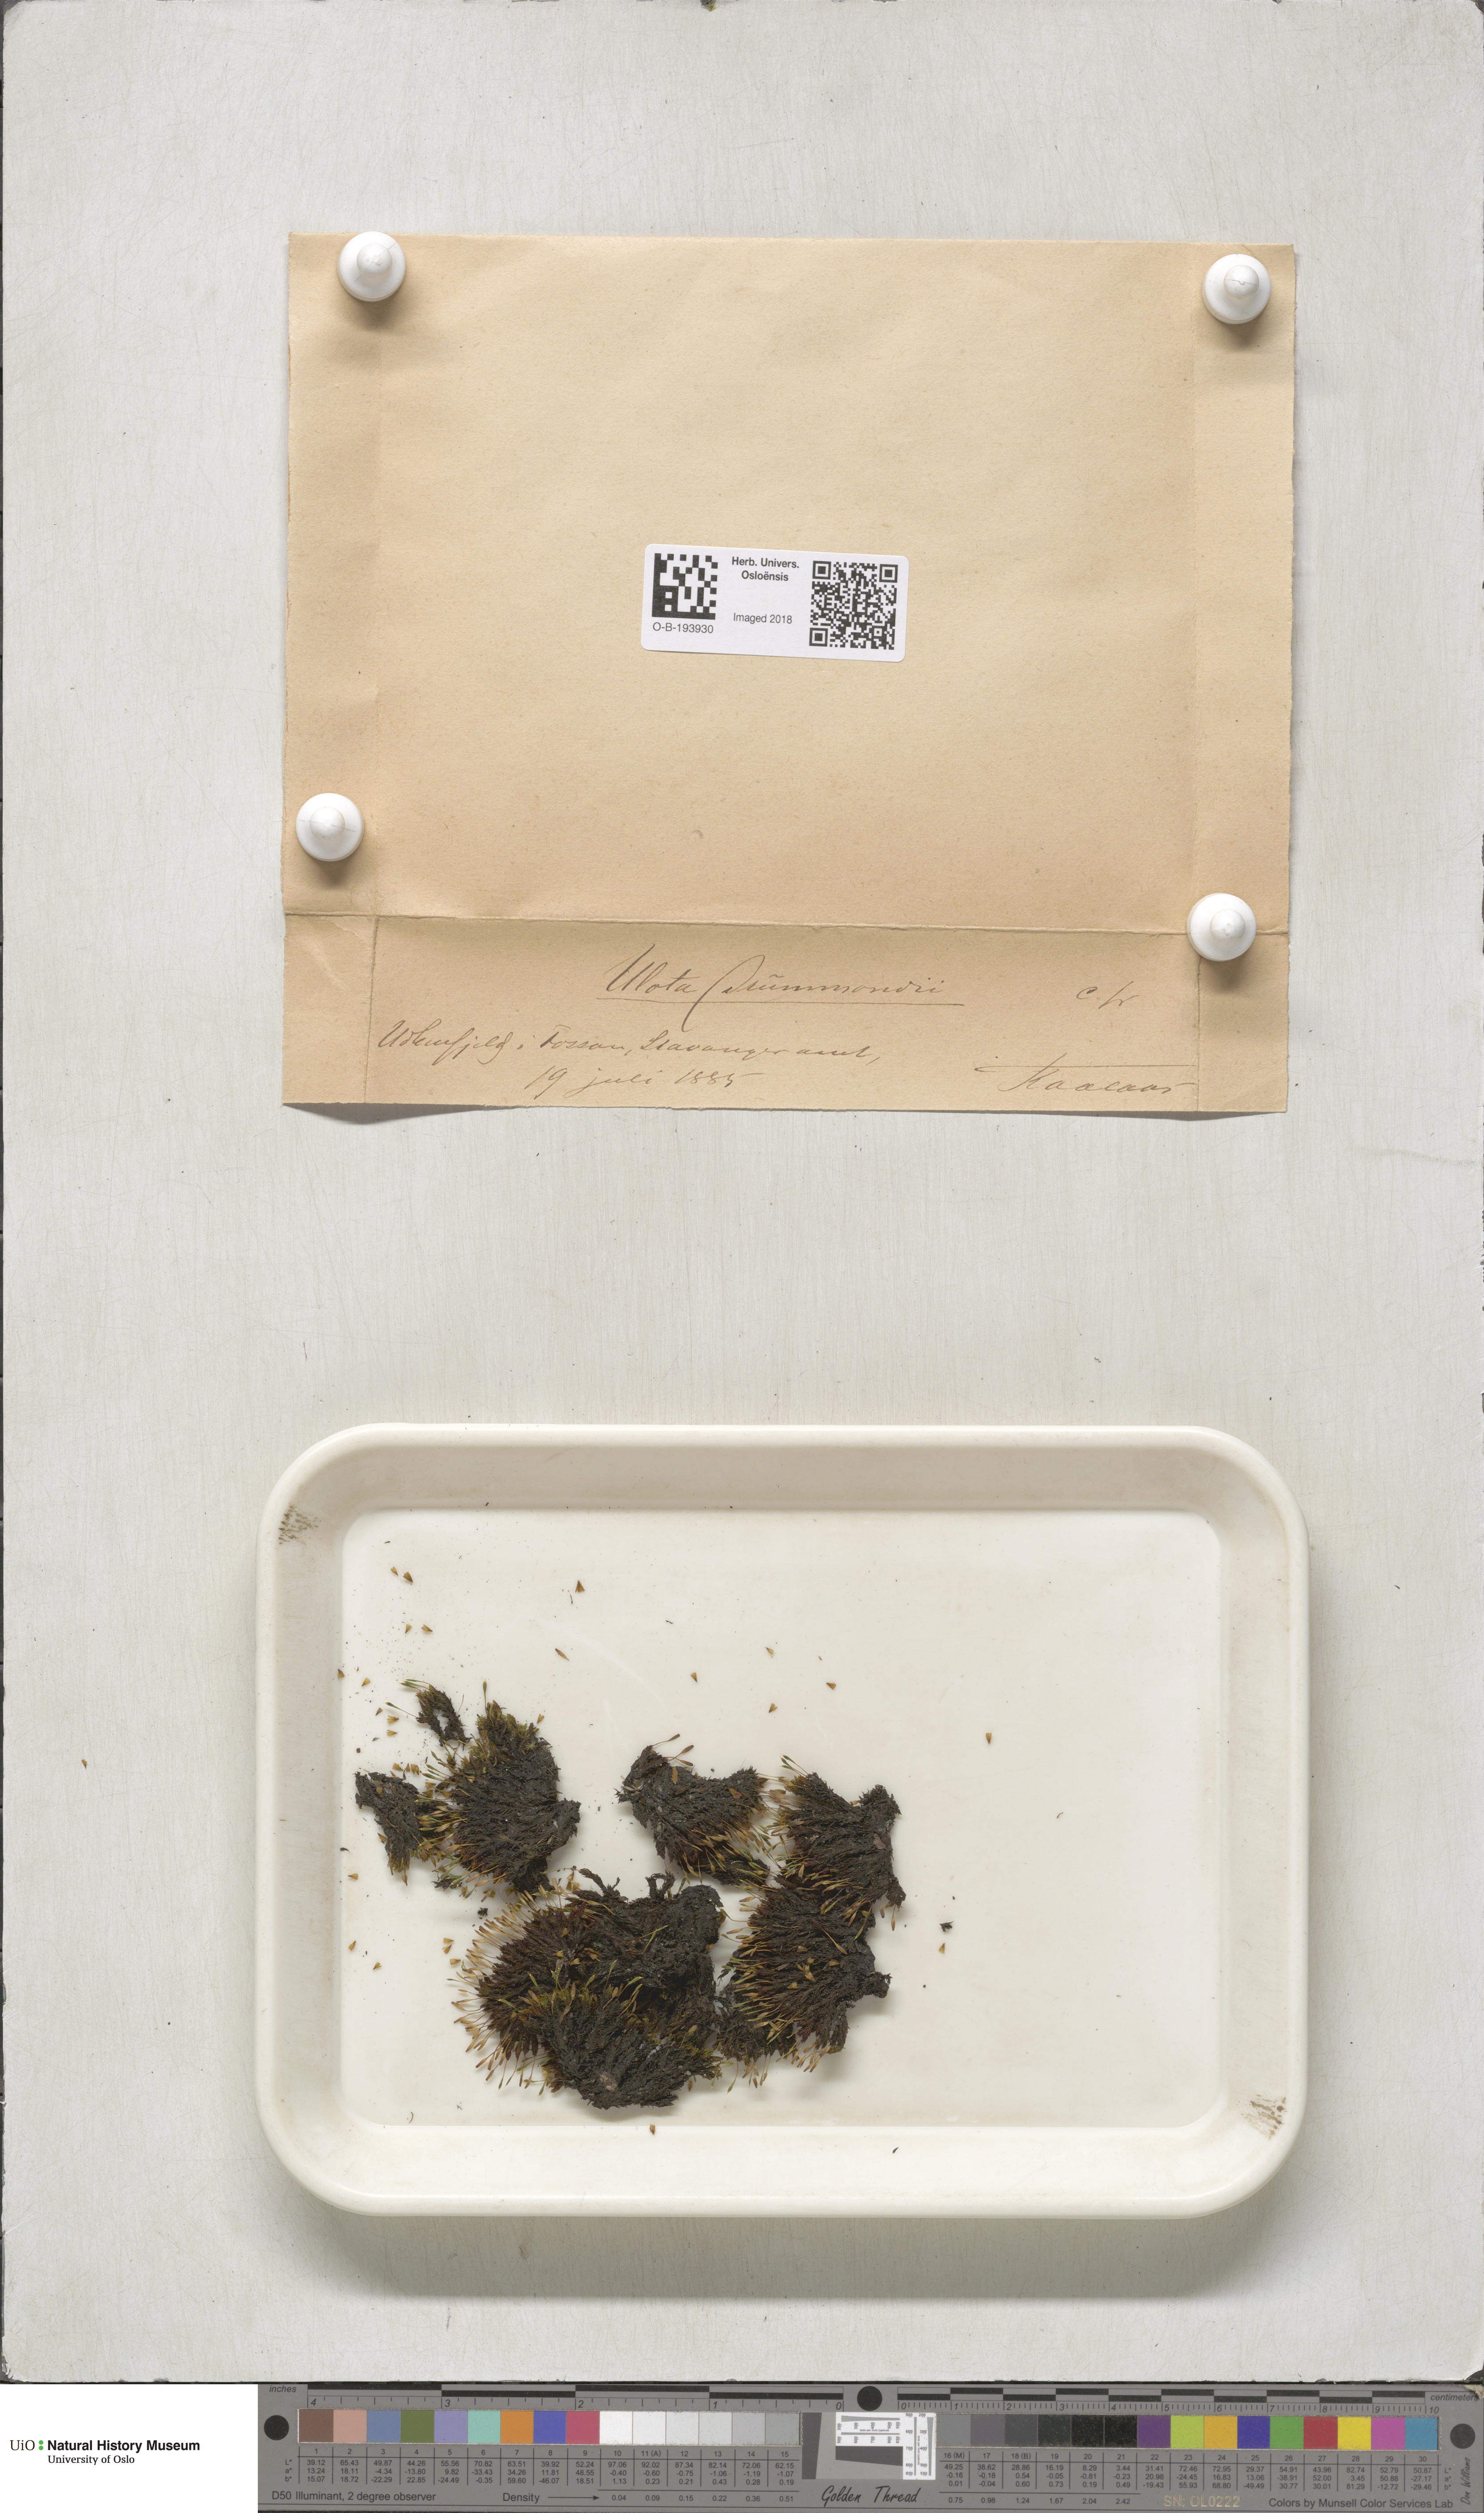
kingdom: Plantae
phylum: Bryophyta
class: Bryopsida
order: Orthotrichales
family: Orthotrichaceae
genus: Ulota
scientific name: Ulota drummondii
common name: Drummond's pincushion moss
